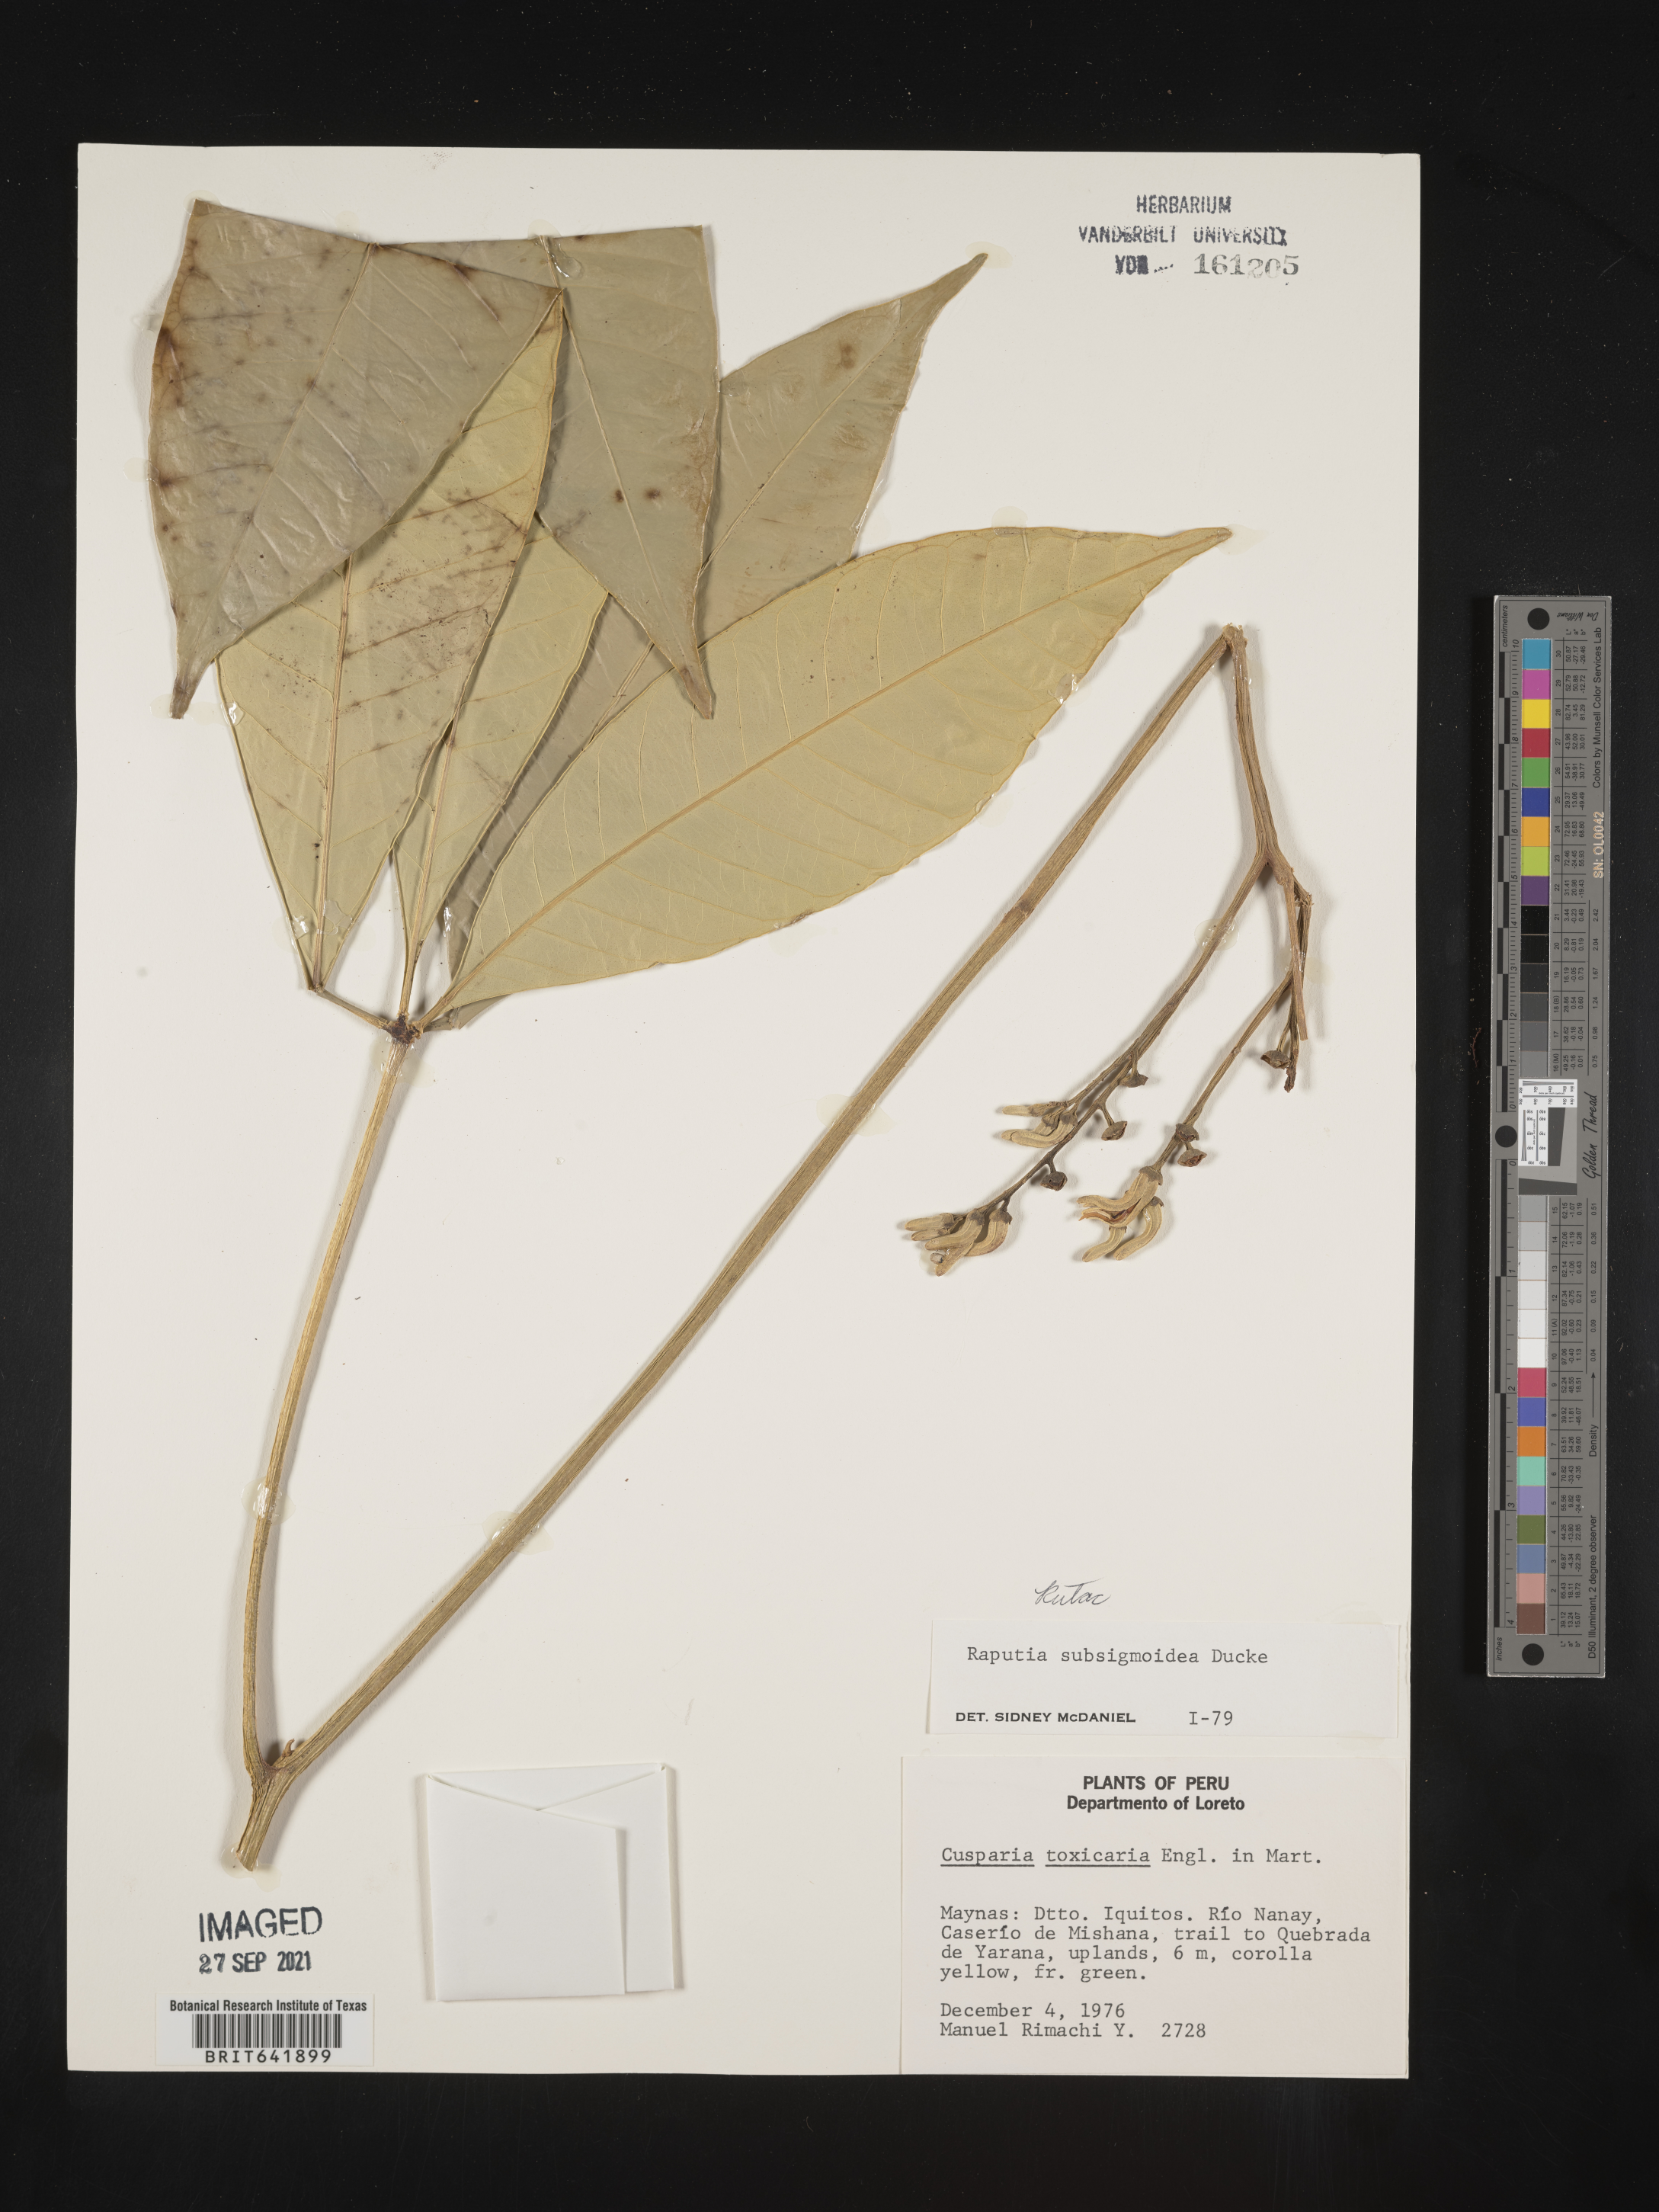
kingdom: Plantae
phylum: Tracheophyta
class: Magnoliopsida
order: Sapindales
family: Rutaceae
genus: Raputia
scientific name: Raputia
